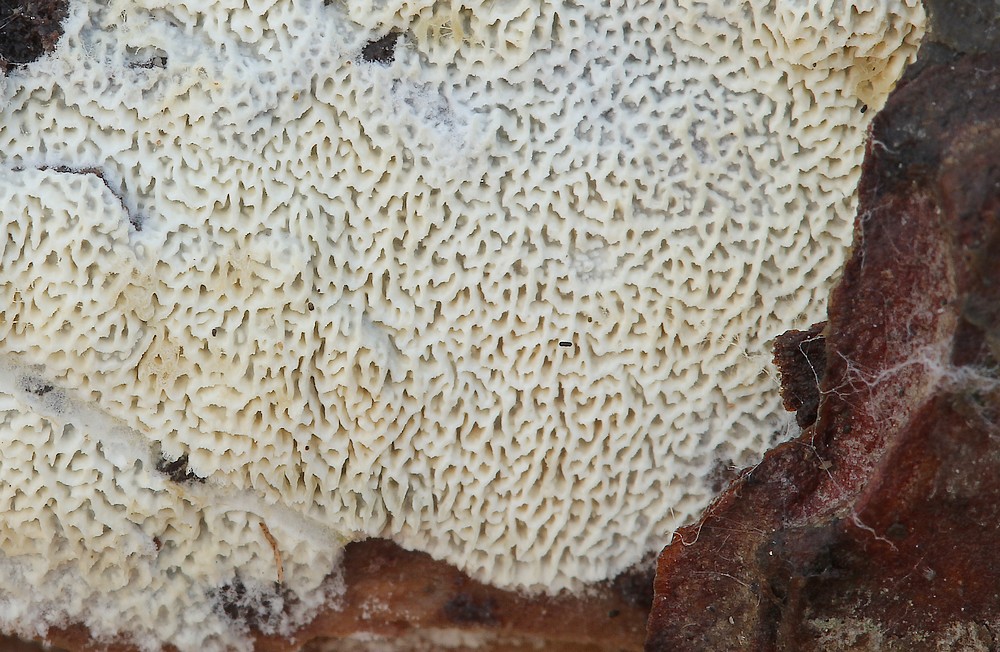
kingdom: Fungi
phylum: Basidiomycota
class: Agaricomycetes
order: Hymenochaetales
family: Schizoporaceae
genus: Xylodon
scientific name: Xylodon subtropicus
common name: labyrint-tandsvamp
